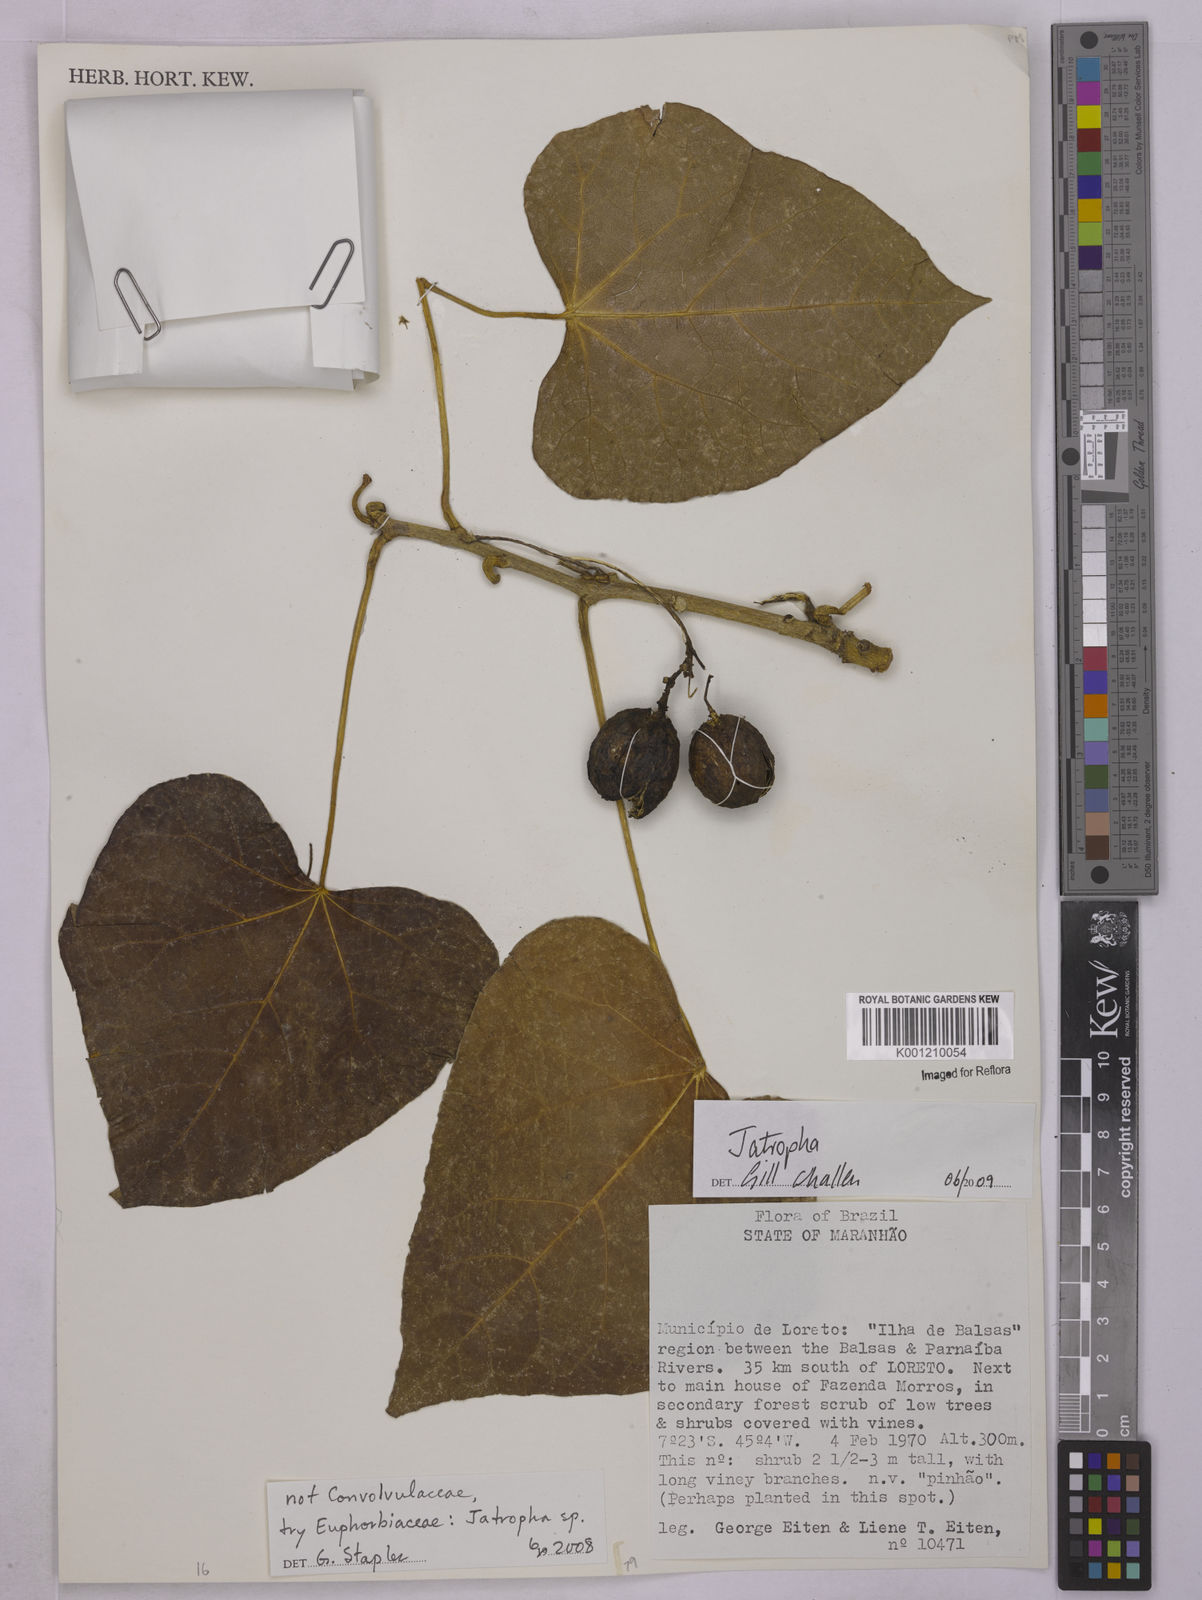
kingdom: Plantae
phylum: Tracheophyta
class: Magnoliopsida
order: Malpighiales
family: Euphorbiaceae
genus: Jatropha
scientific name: Jatropha
